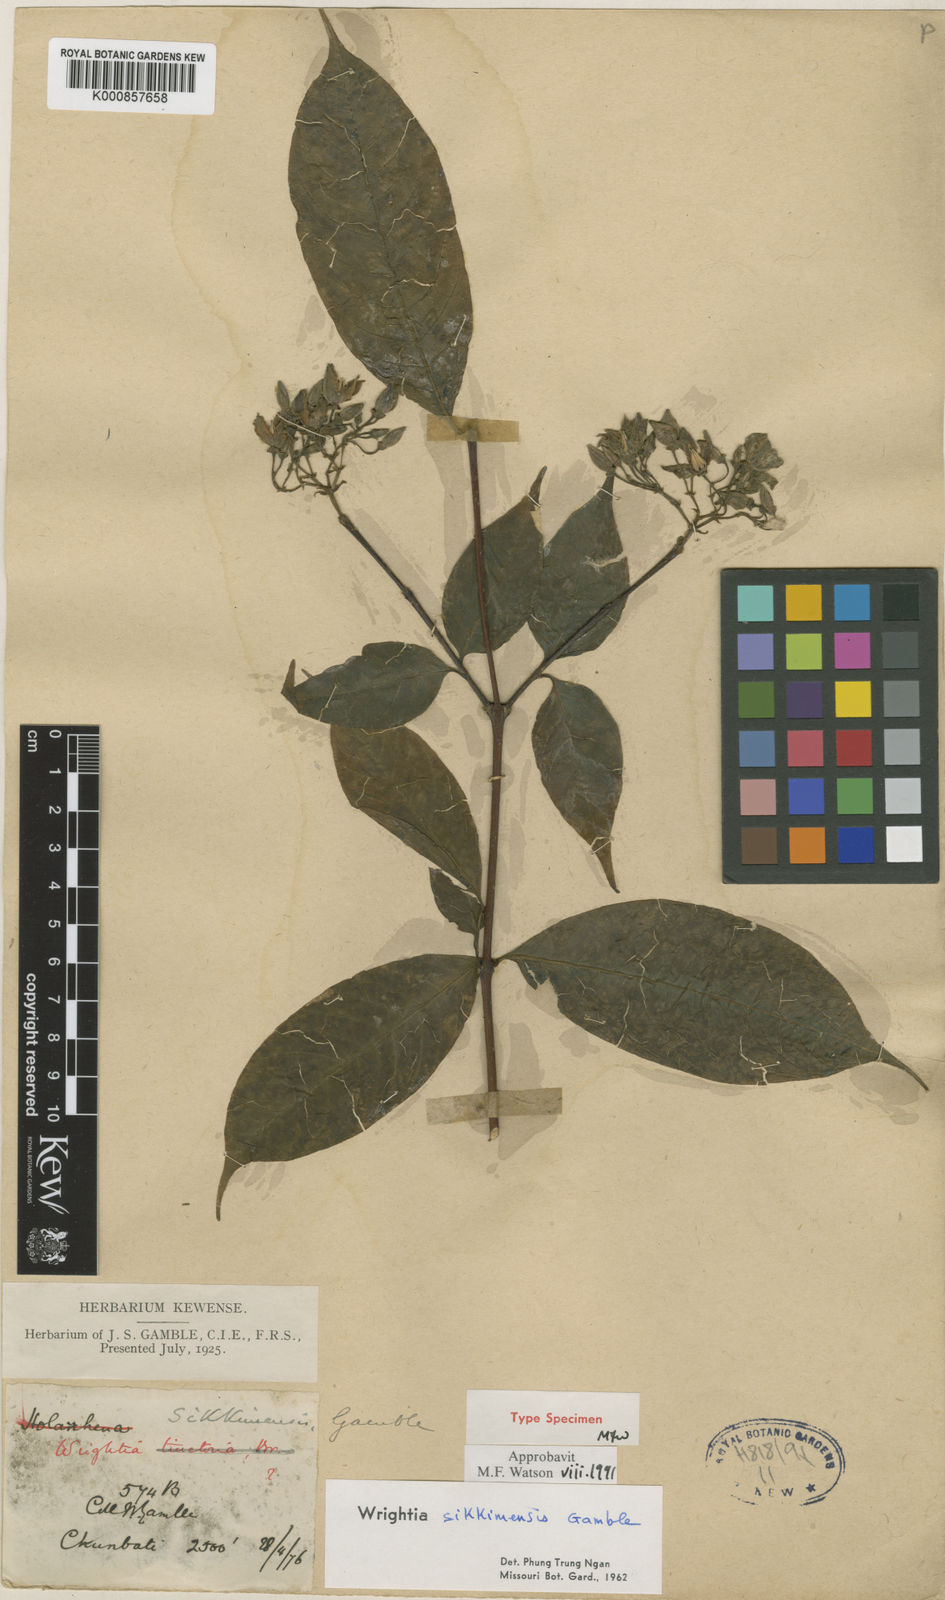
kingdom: Plantae
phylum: Tracheophyta
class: Magnoliopsida
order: Gentianales
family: Apocynaceae
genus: Wrightia
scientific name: Wrightia sikkimensis
